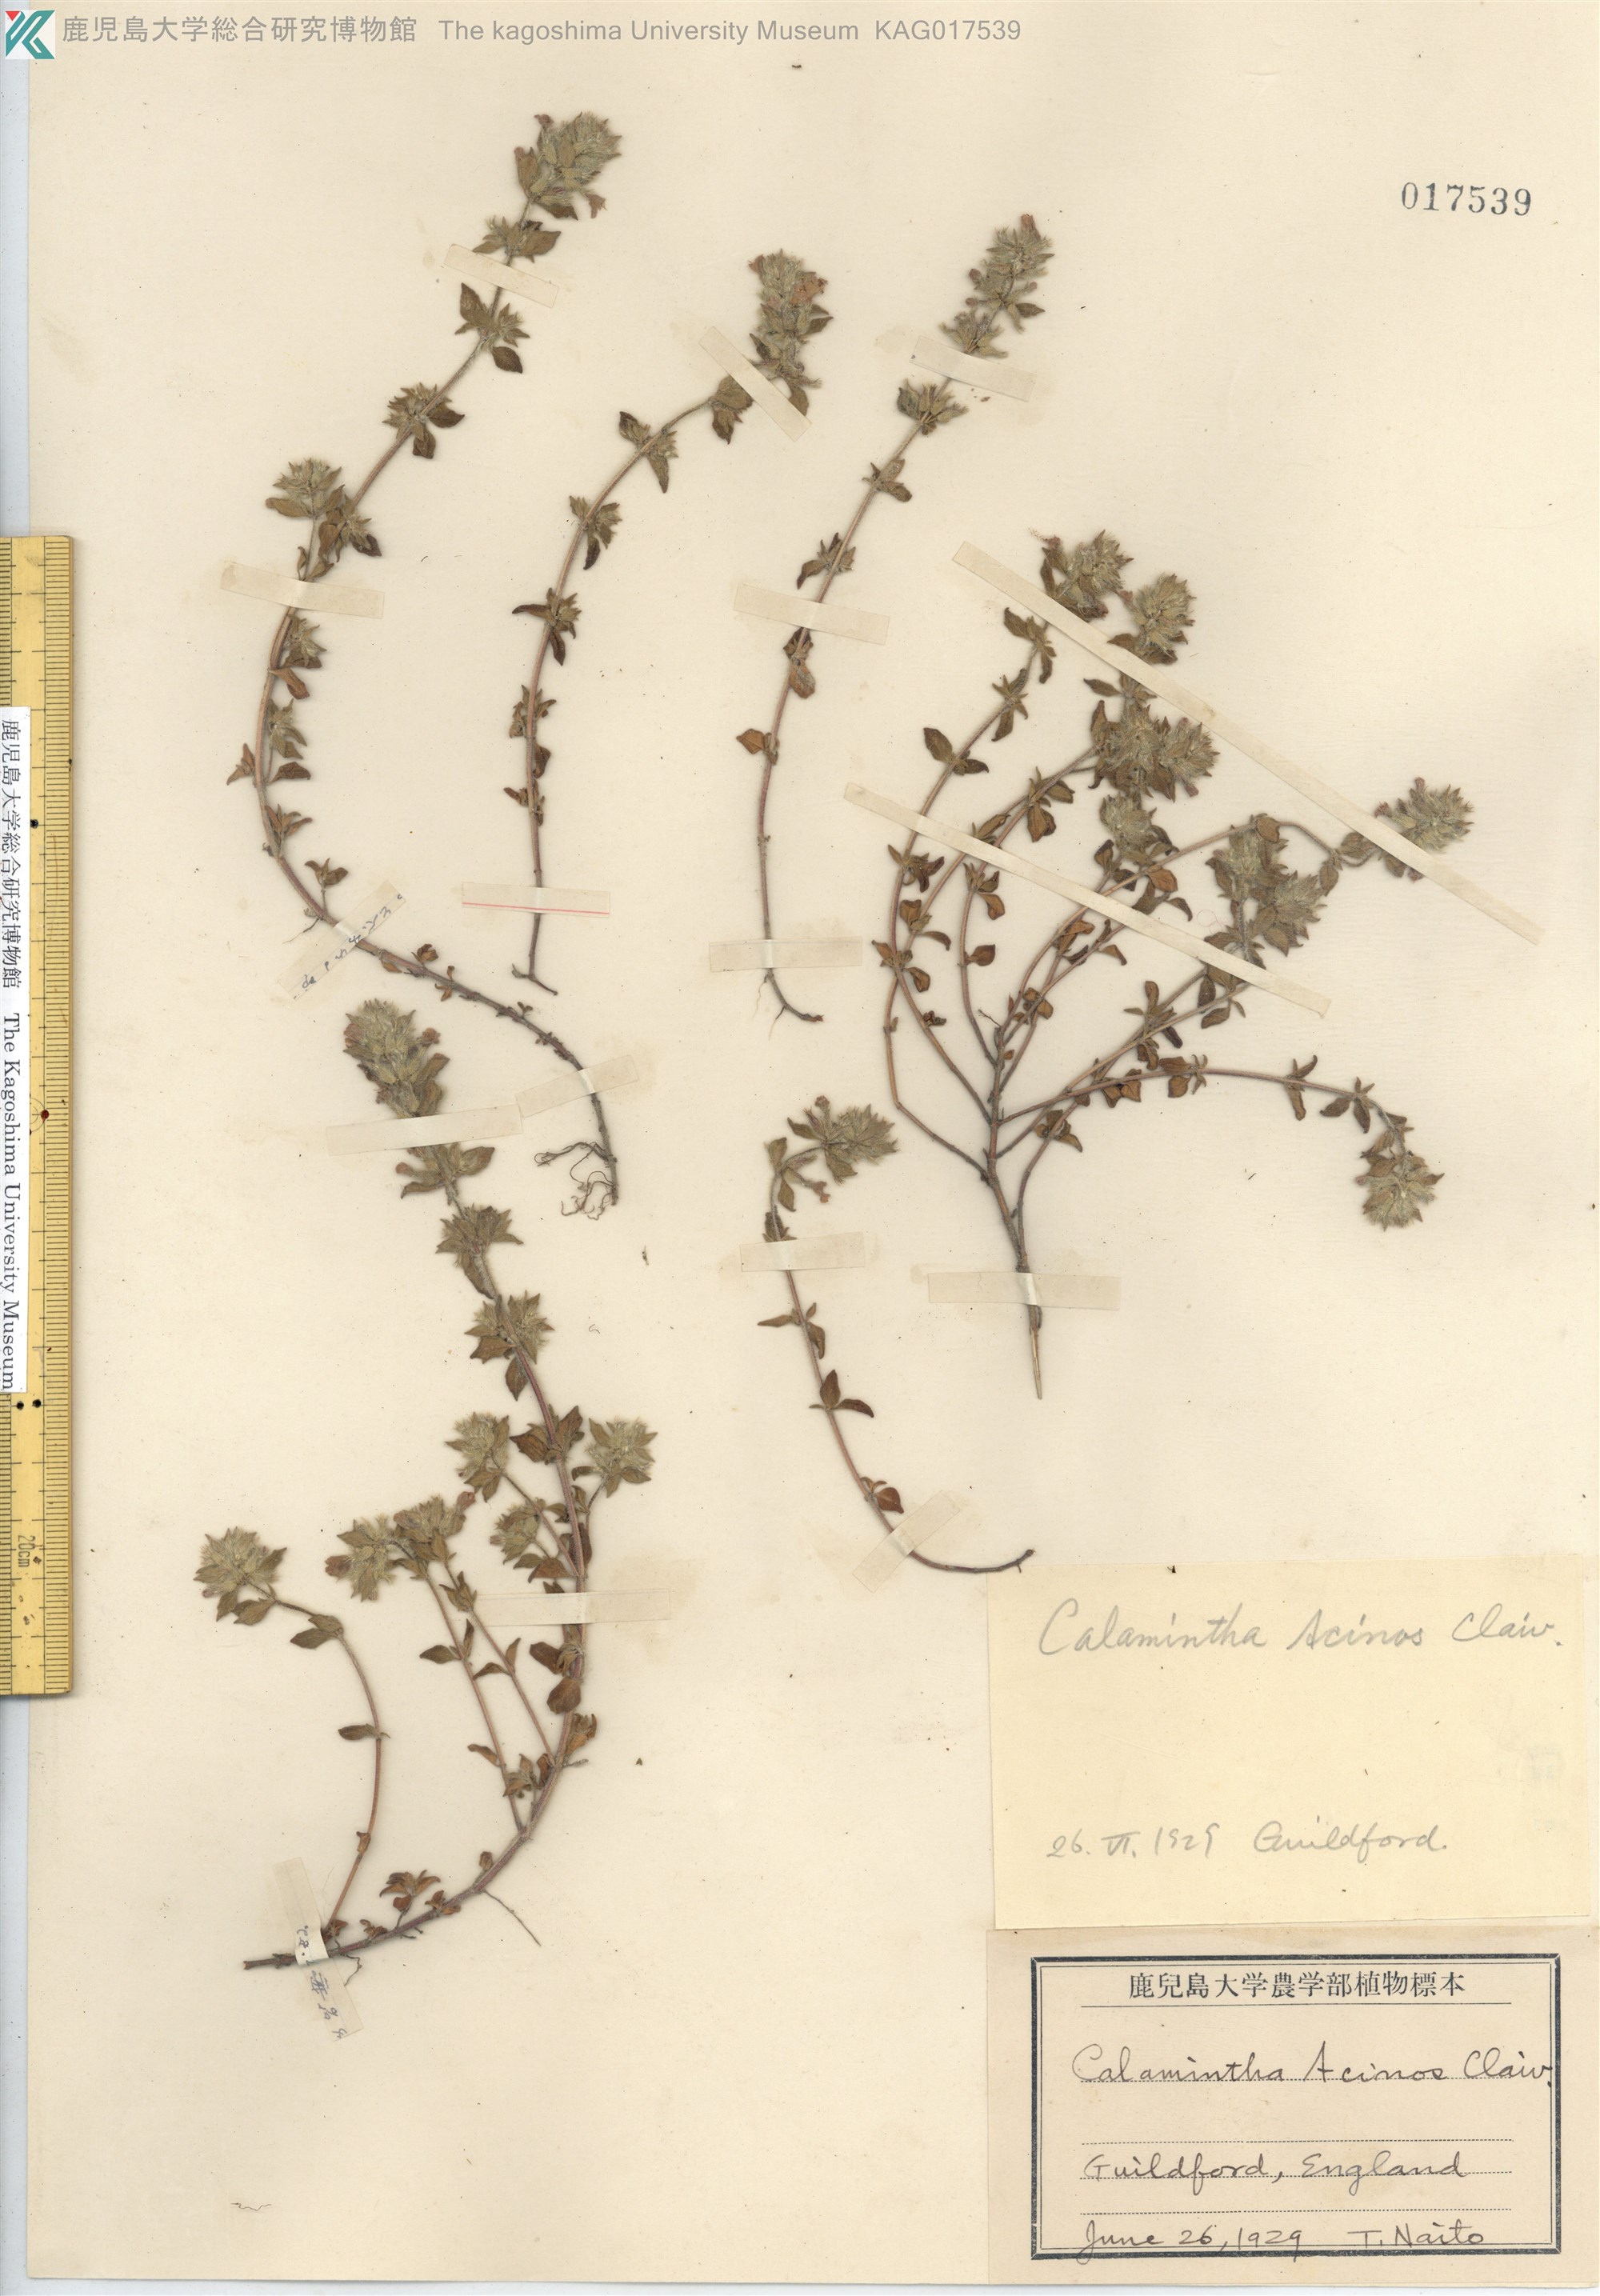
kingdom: Plantae
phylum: Tracheophyta
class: Magnoliopsida
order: Lamiales
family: Lamiaceae
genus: Clinopodium
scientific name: Clinopodium acinos
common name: Basil thyme
